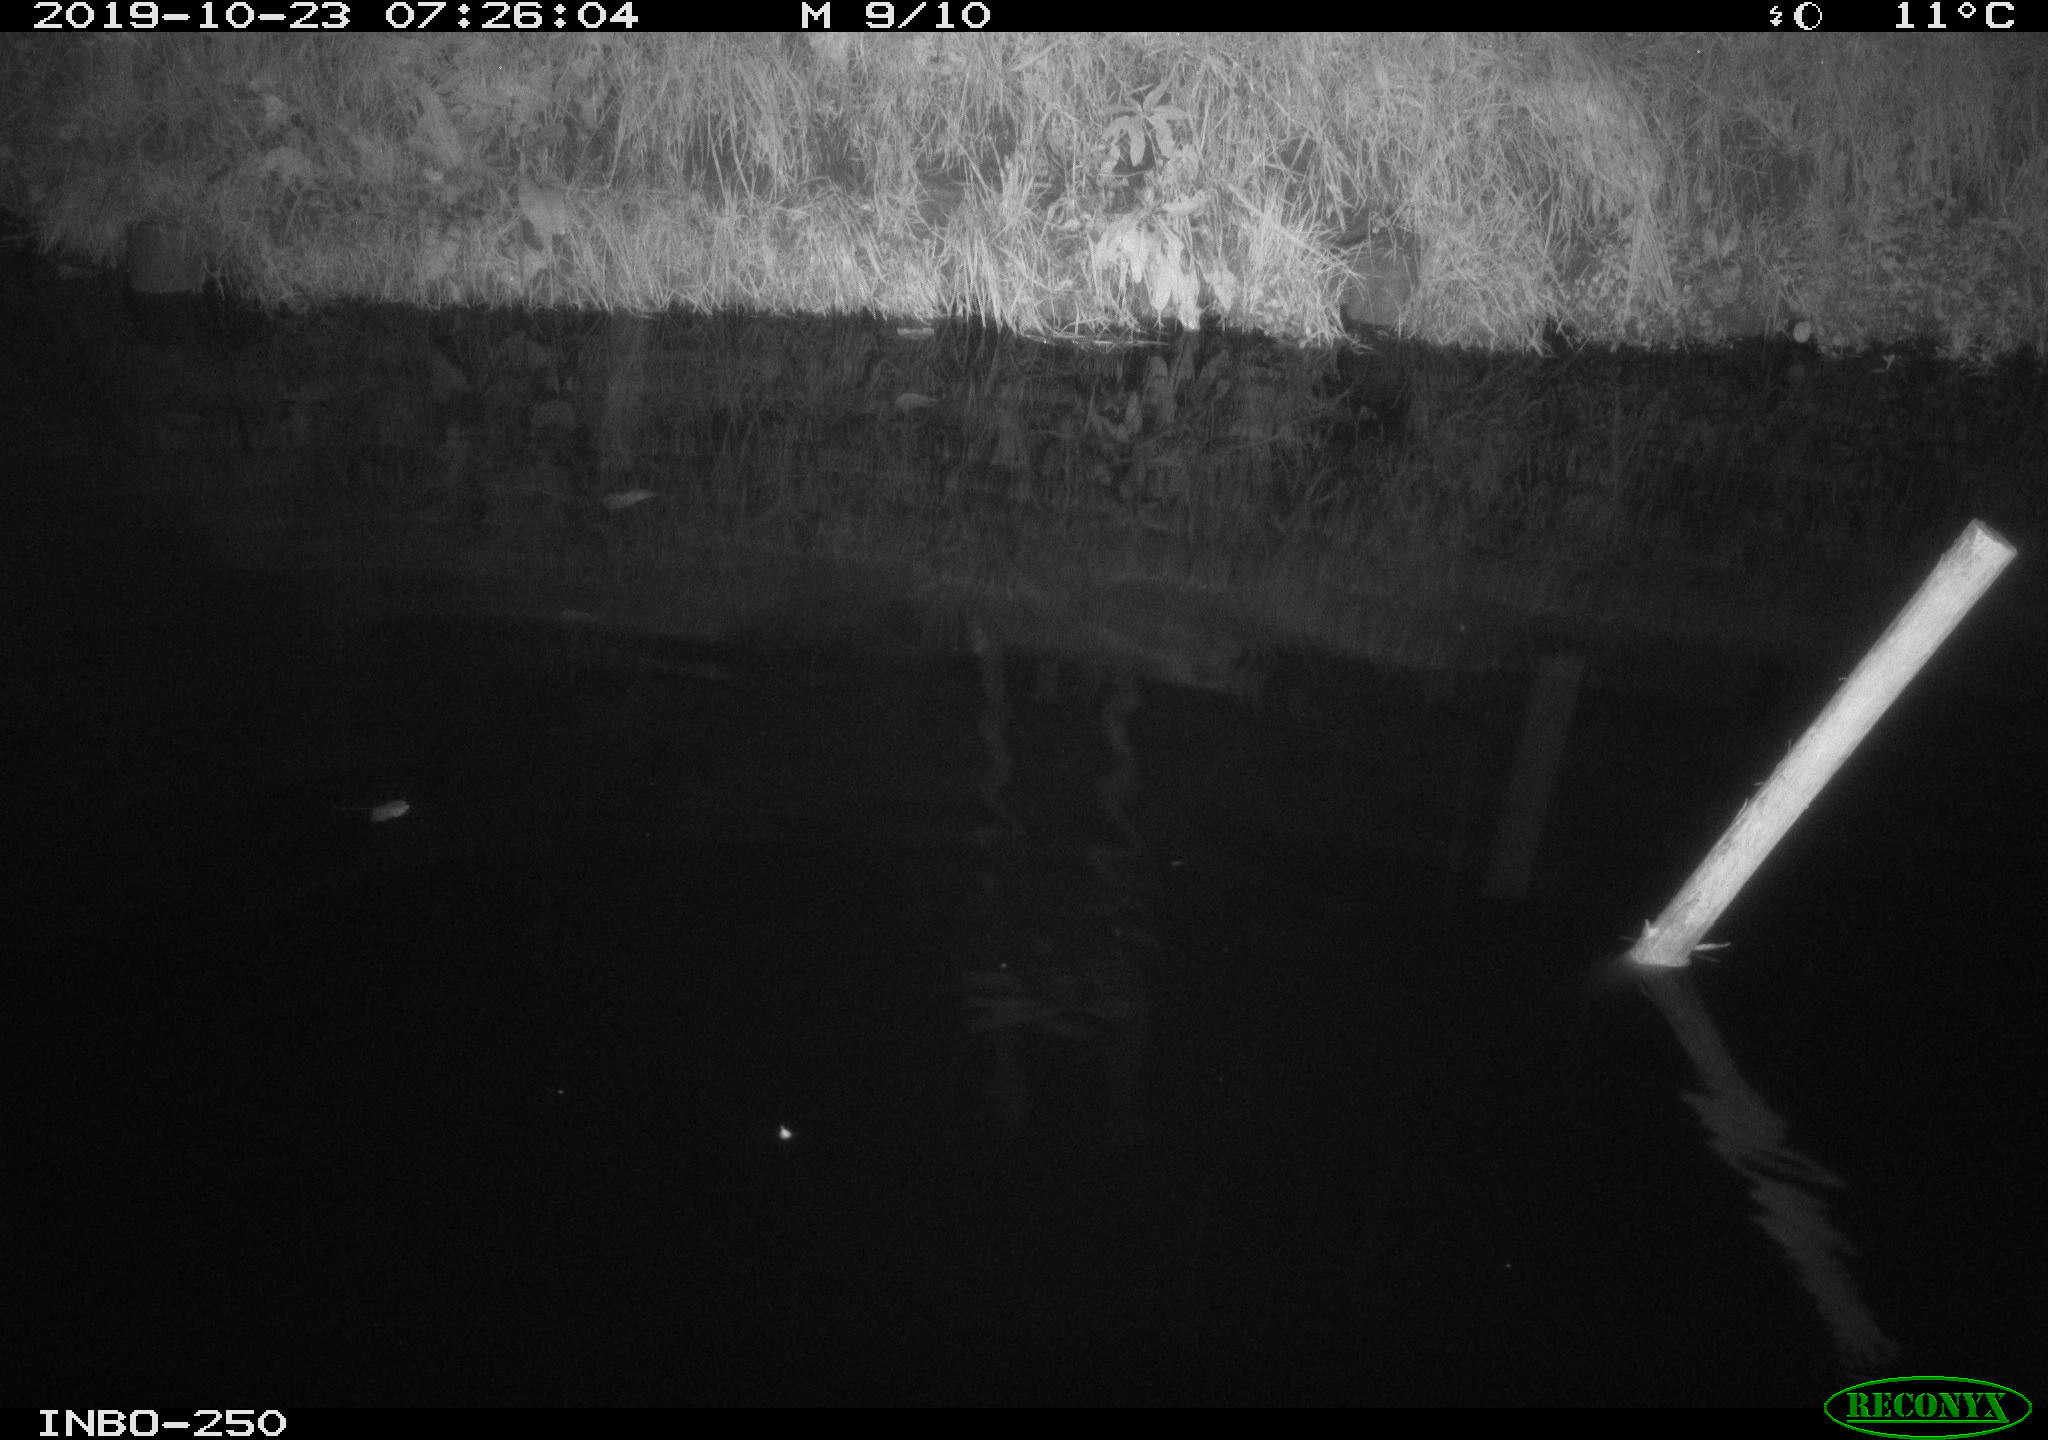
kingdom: Animalia
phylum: Chordata
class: Aves
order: Anseriformes
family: Anatidae
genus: Anas
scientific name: Anas platyrhynchos
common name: Mallard
